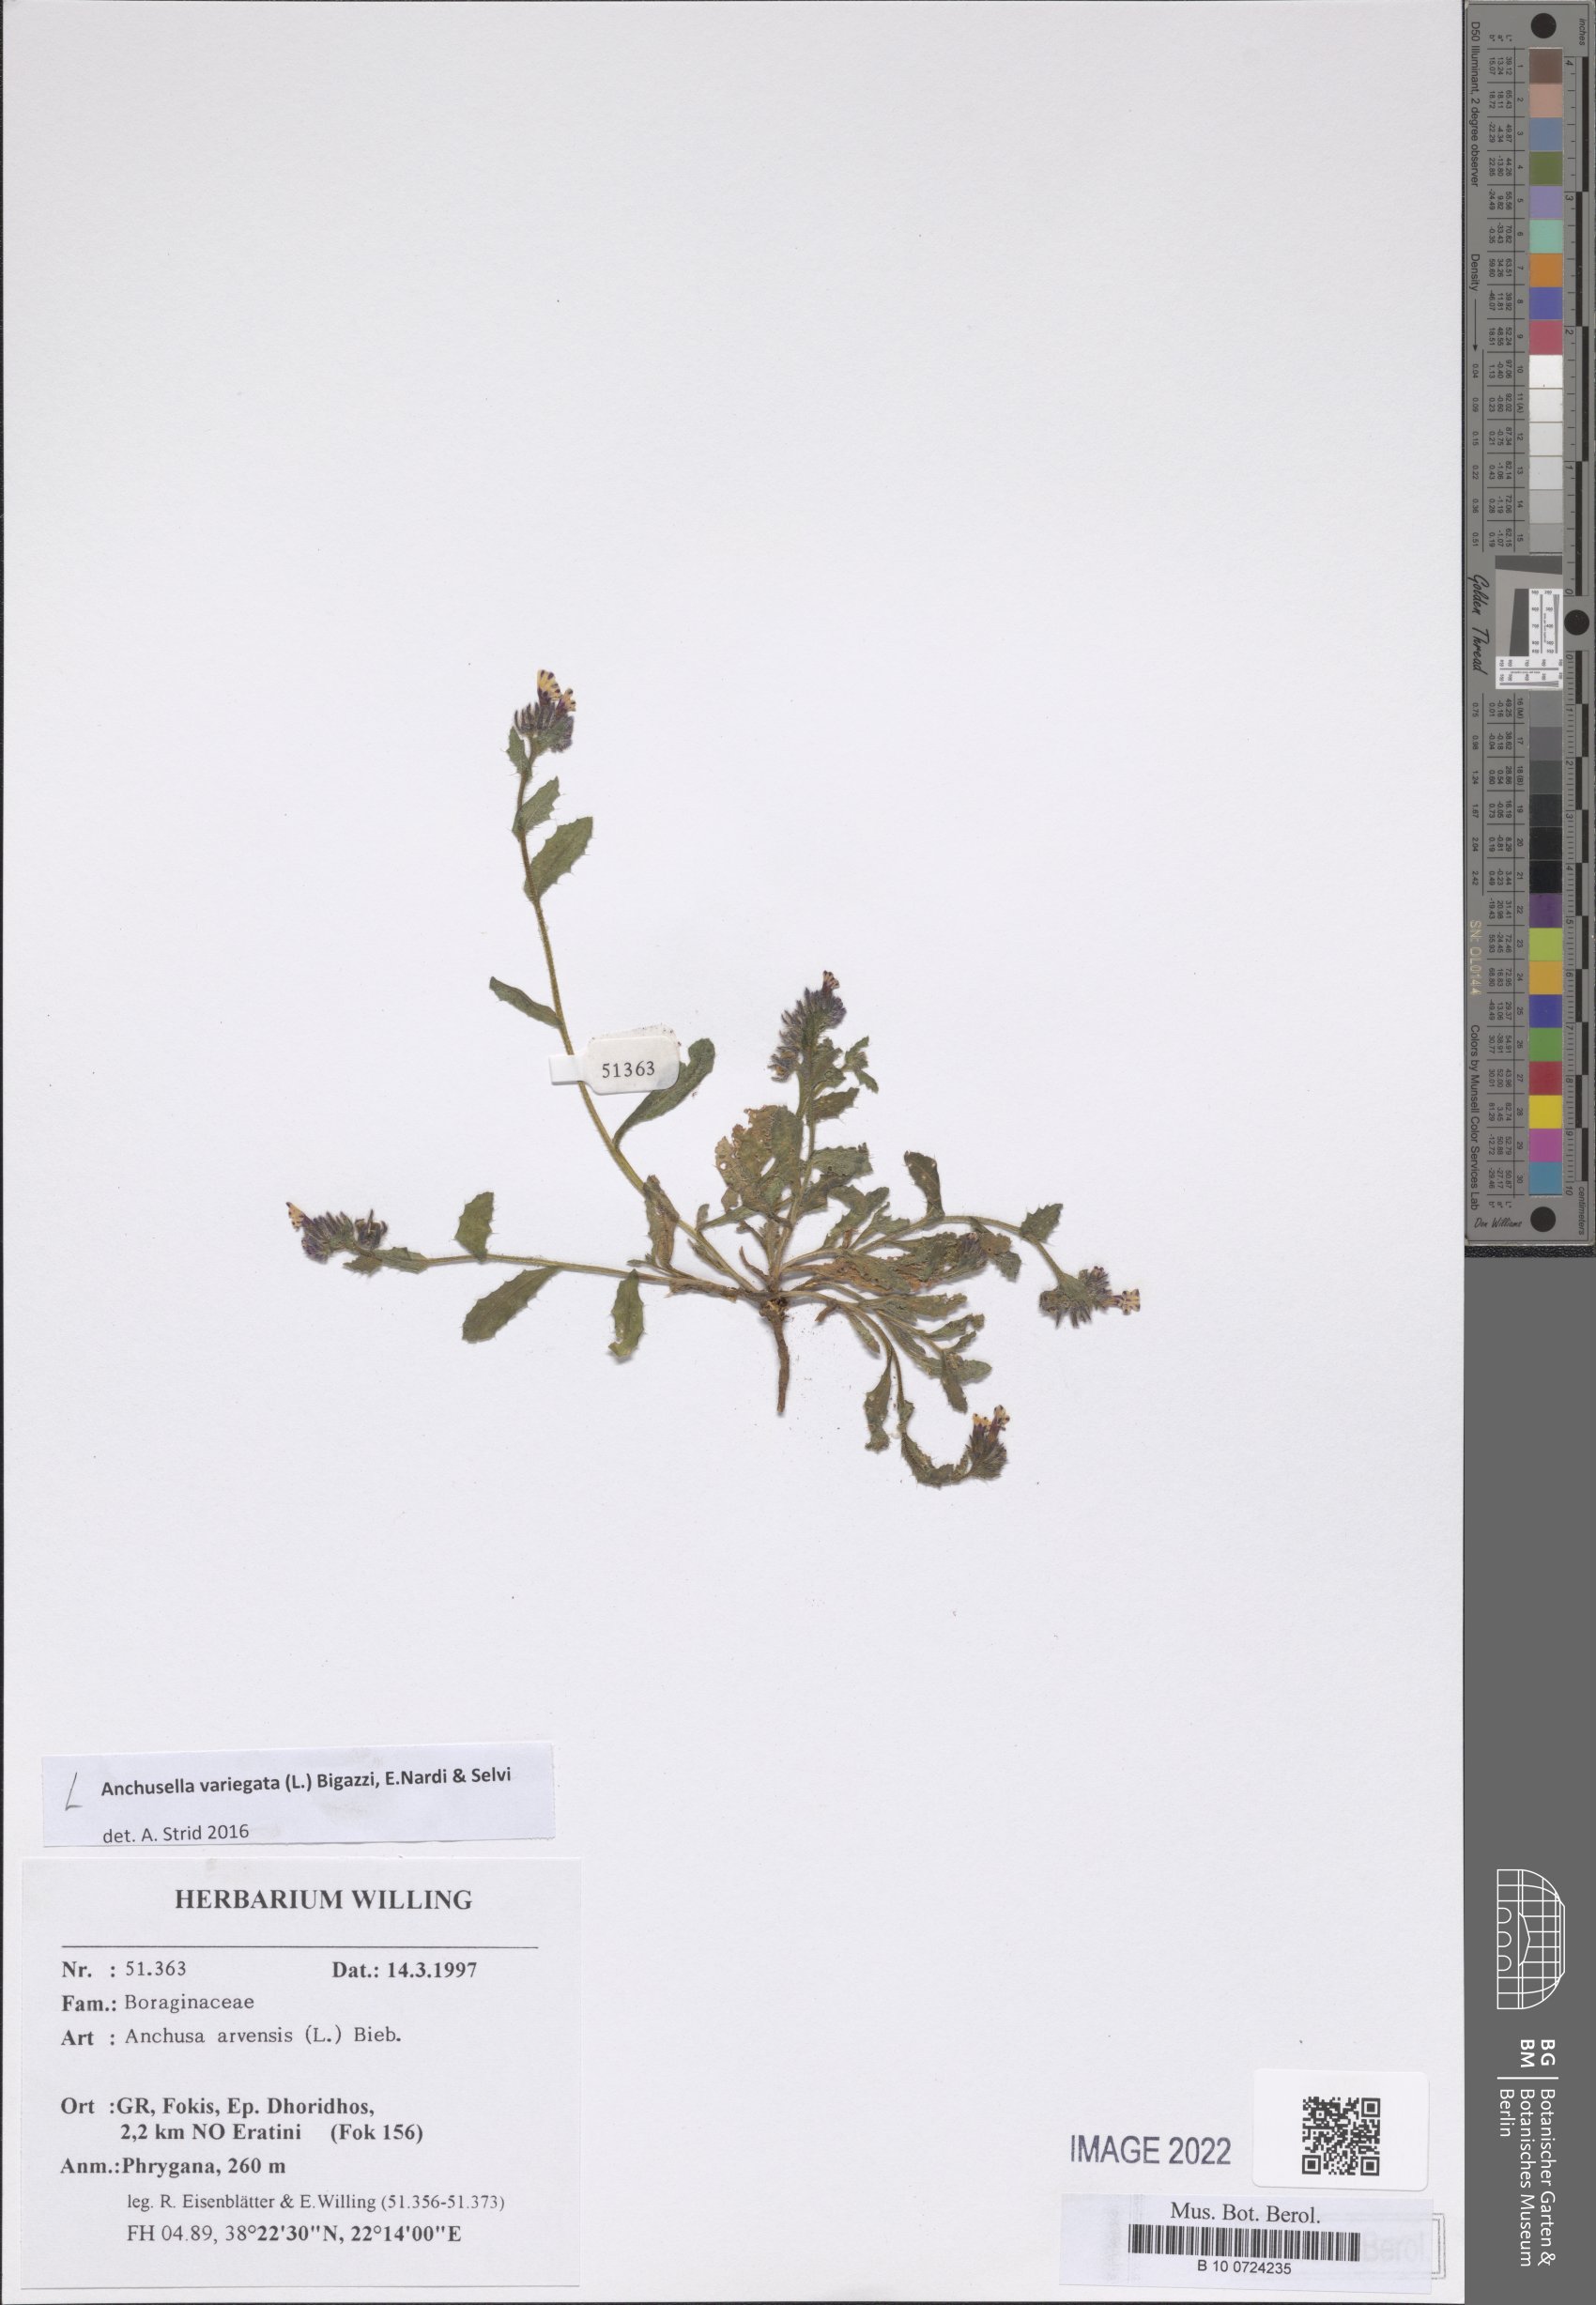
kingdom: Plantae
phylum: Tracheophyta
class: Magnoliopsida
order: Boraginales
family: Boraginaceae
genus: Anchusella
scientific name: Anchusella variegata
